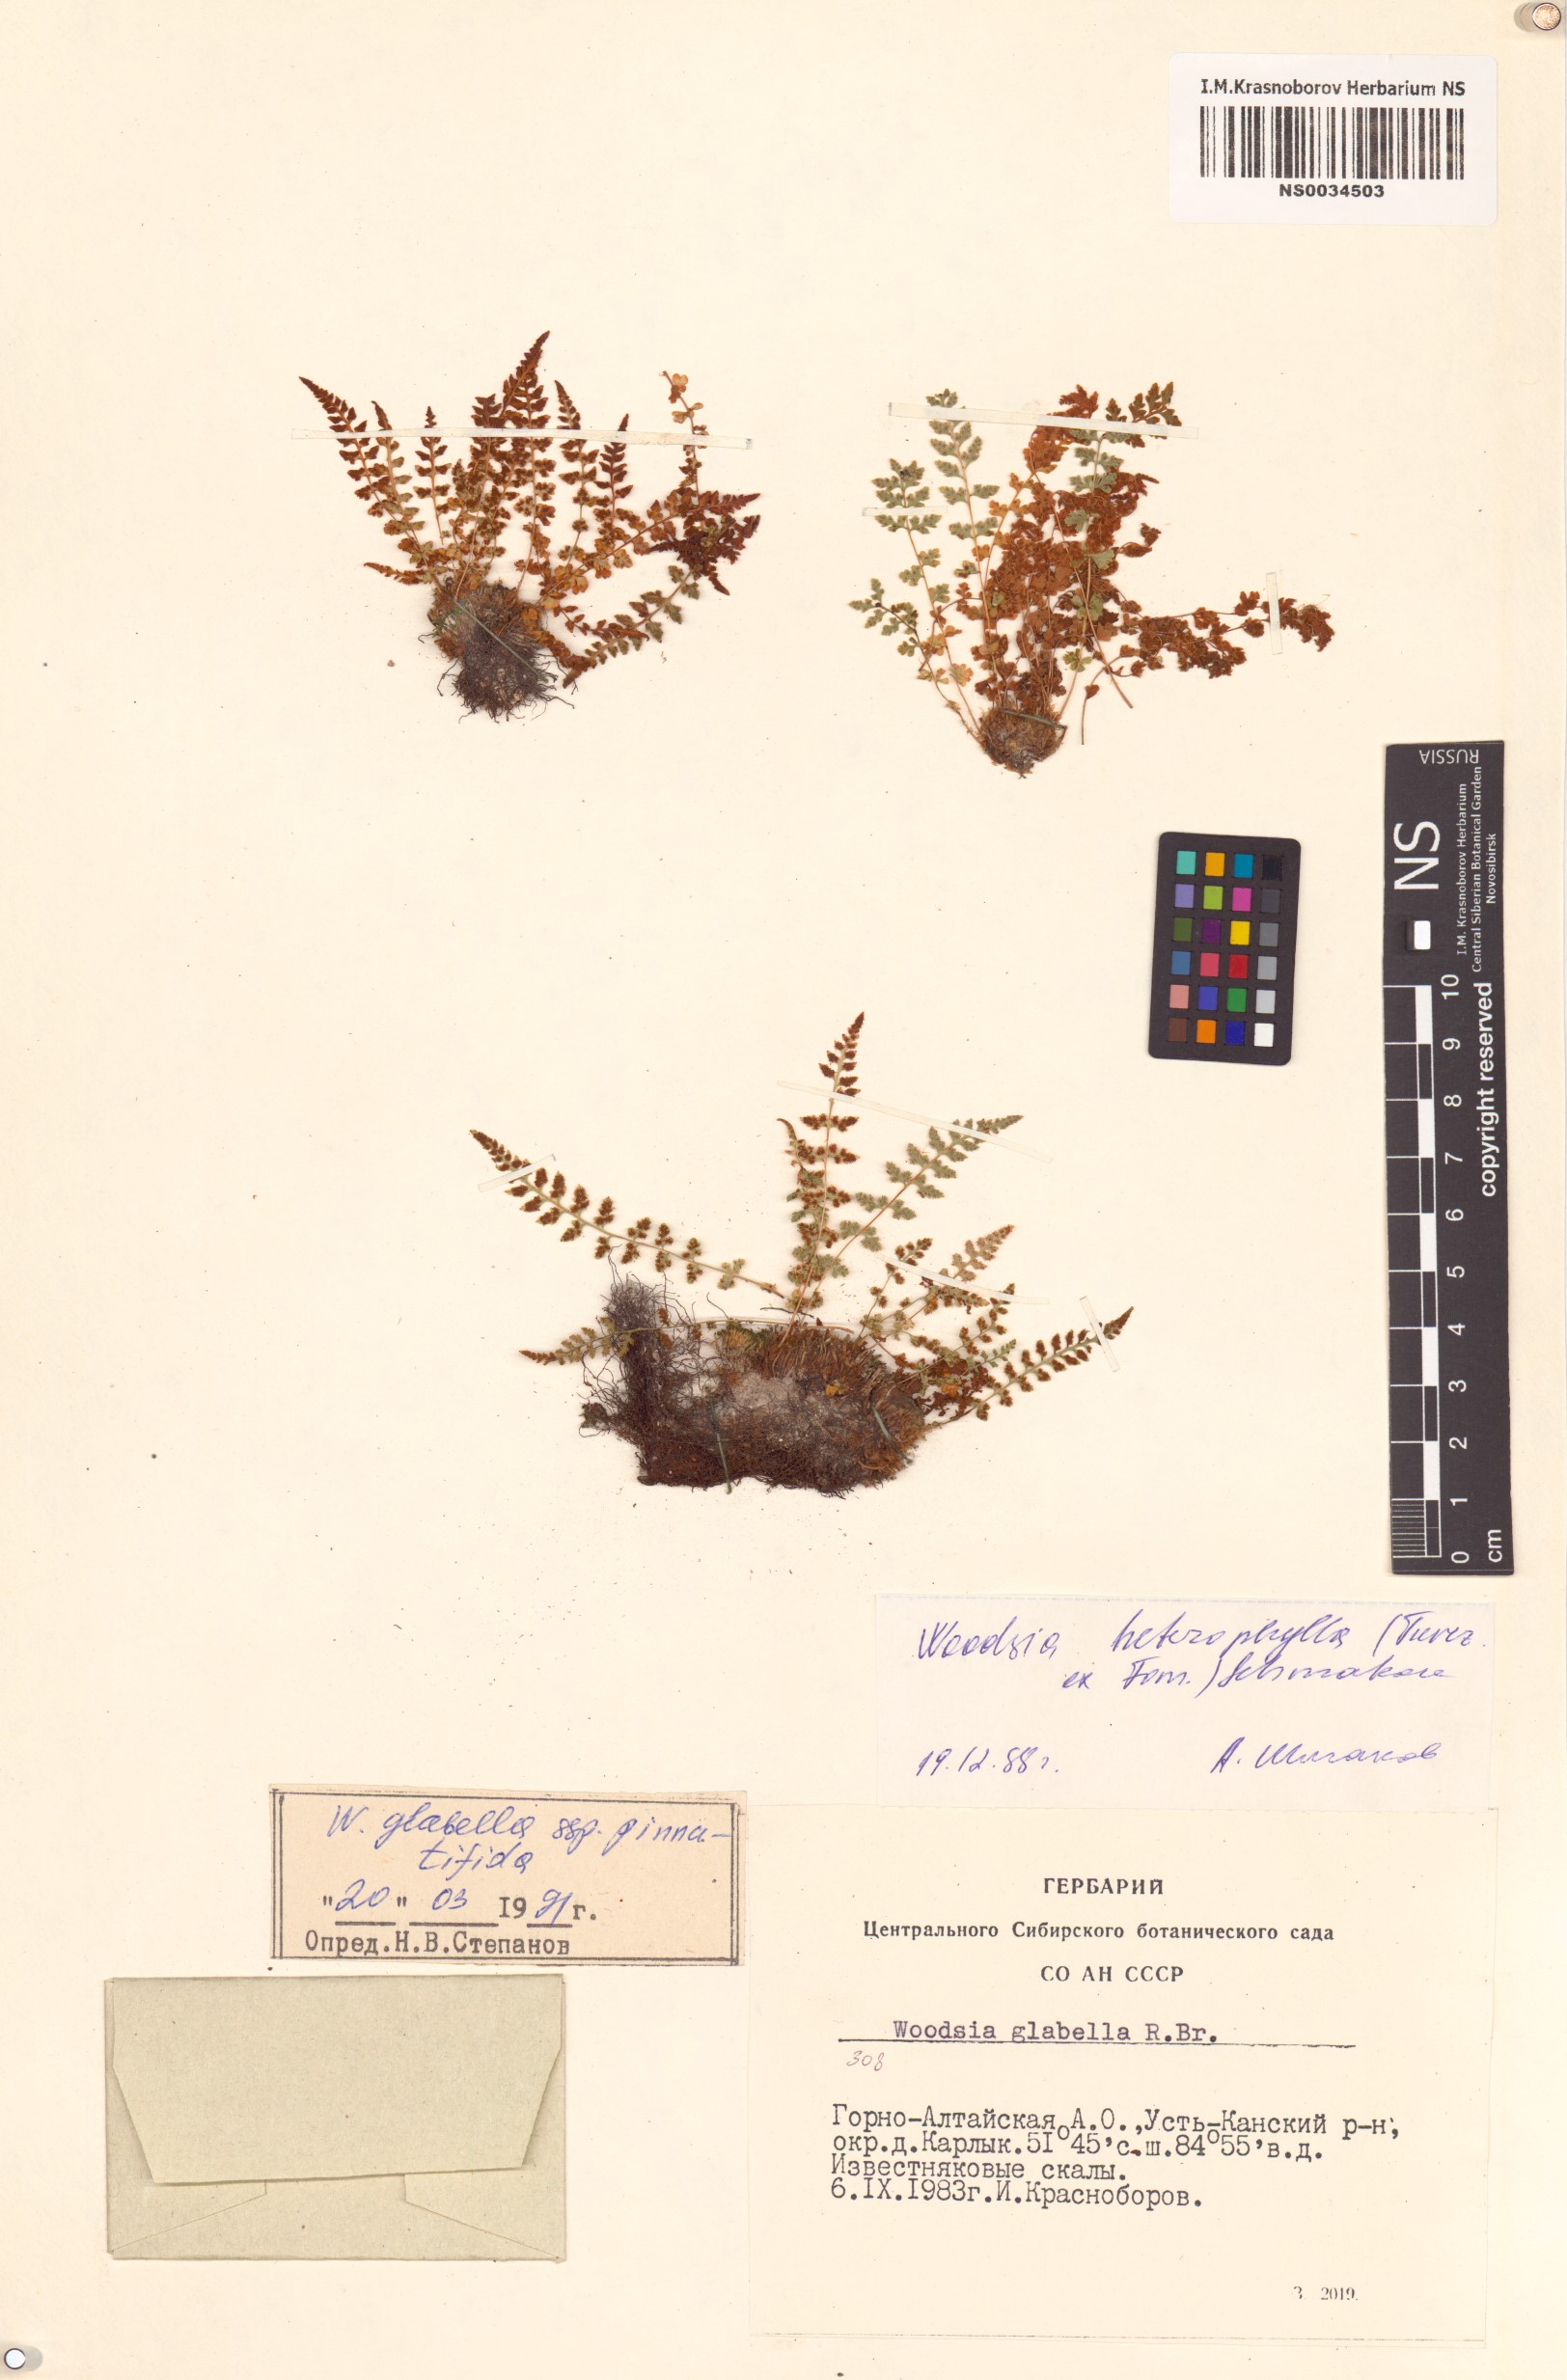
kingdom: Plantae
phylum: Tracheophyta
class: Polypodiopsida
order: Polypodiales
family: Woodsiaceae
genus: Woodsia
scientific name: Woodsia pulchella
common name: Graceful woodsia
